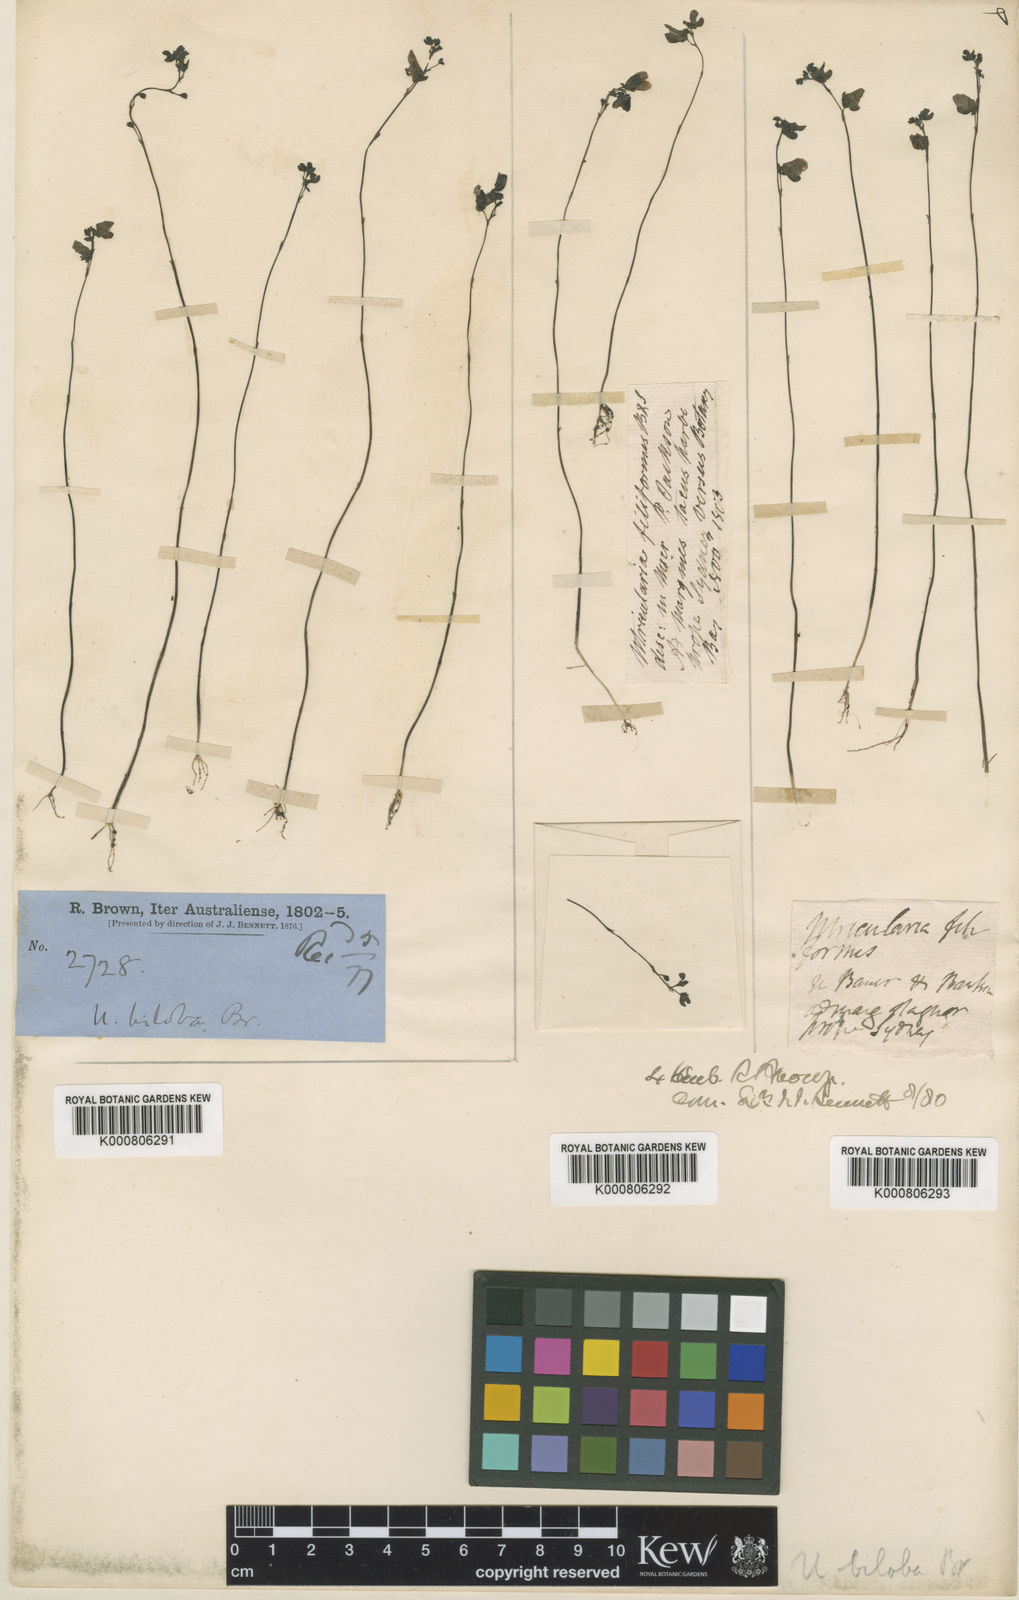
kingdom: Plantae
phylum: Tracheophyta
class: Magnoliopsida
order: Lamiales
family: Lentibulariaceae
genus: Utricularia
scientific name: Utricularia biloba
